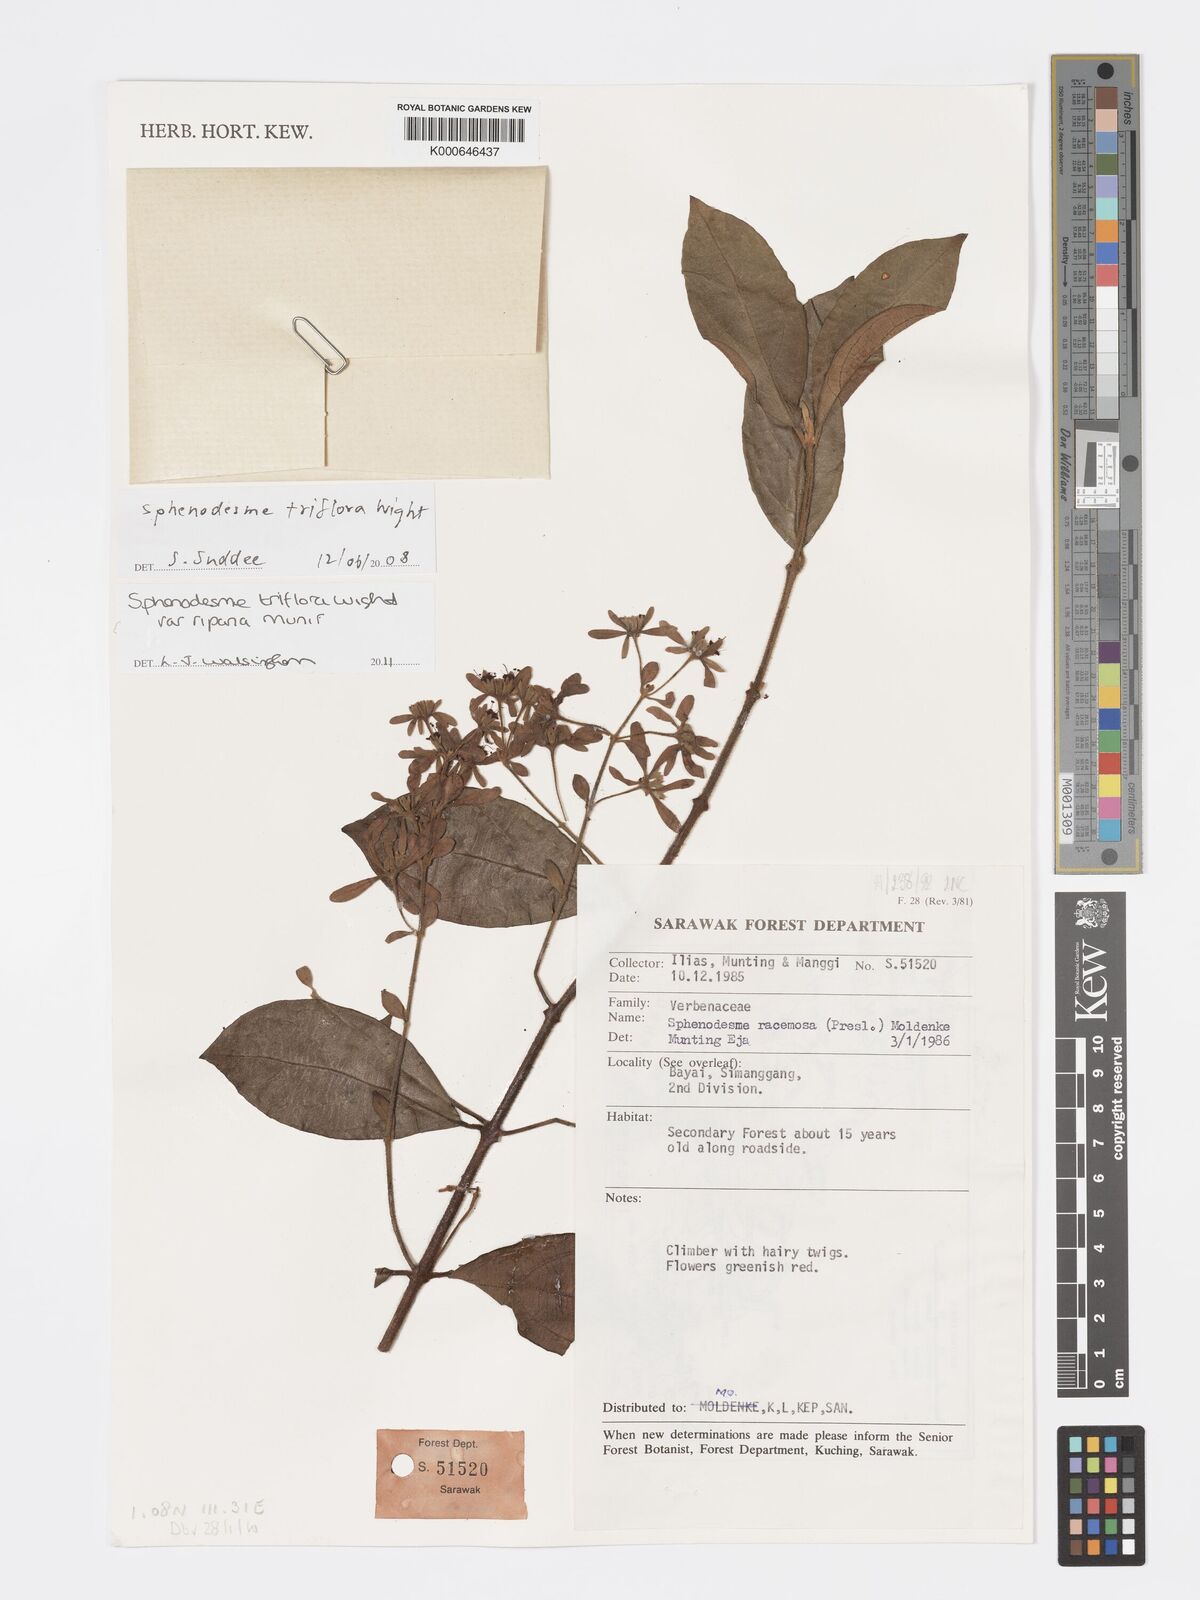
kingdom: Plantae
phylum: Tracheophyta
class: Magnoliopsida
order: Lamiales
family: Lamiaceae
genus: Sphenodesme
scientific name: Sphenodesme triflora
